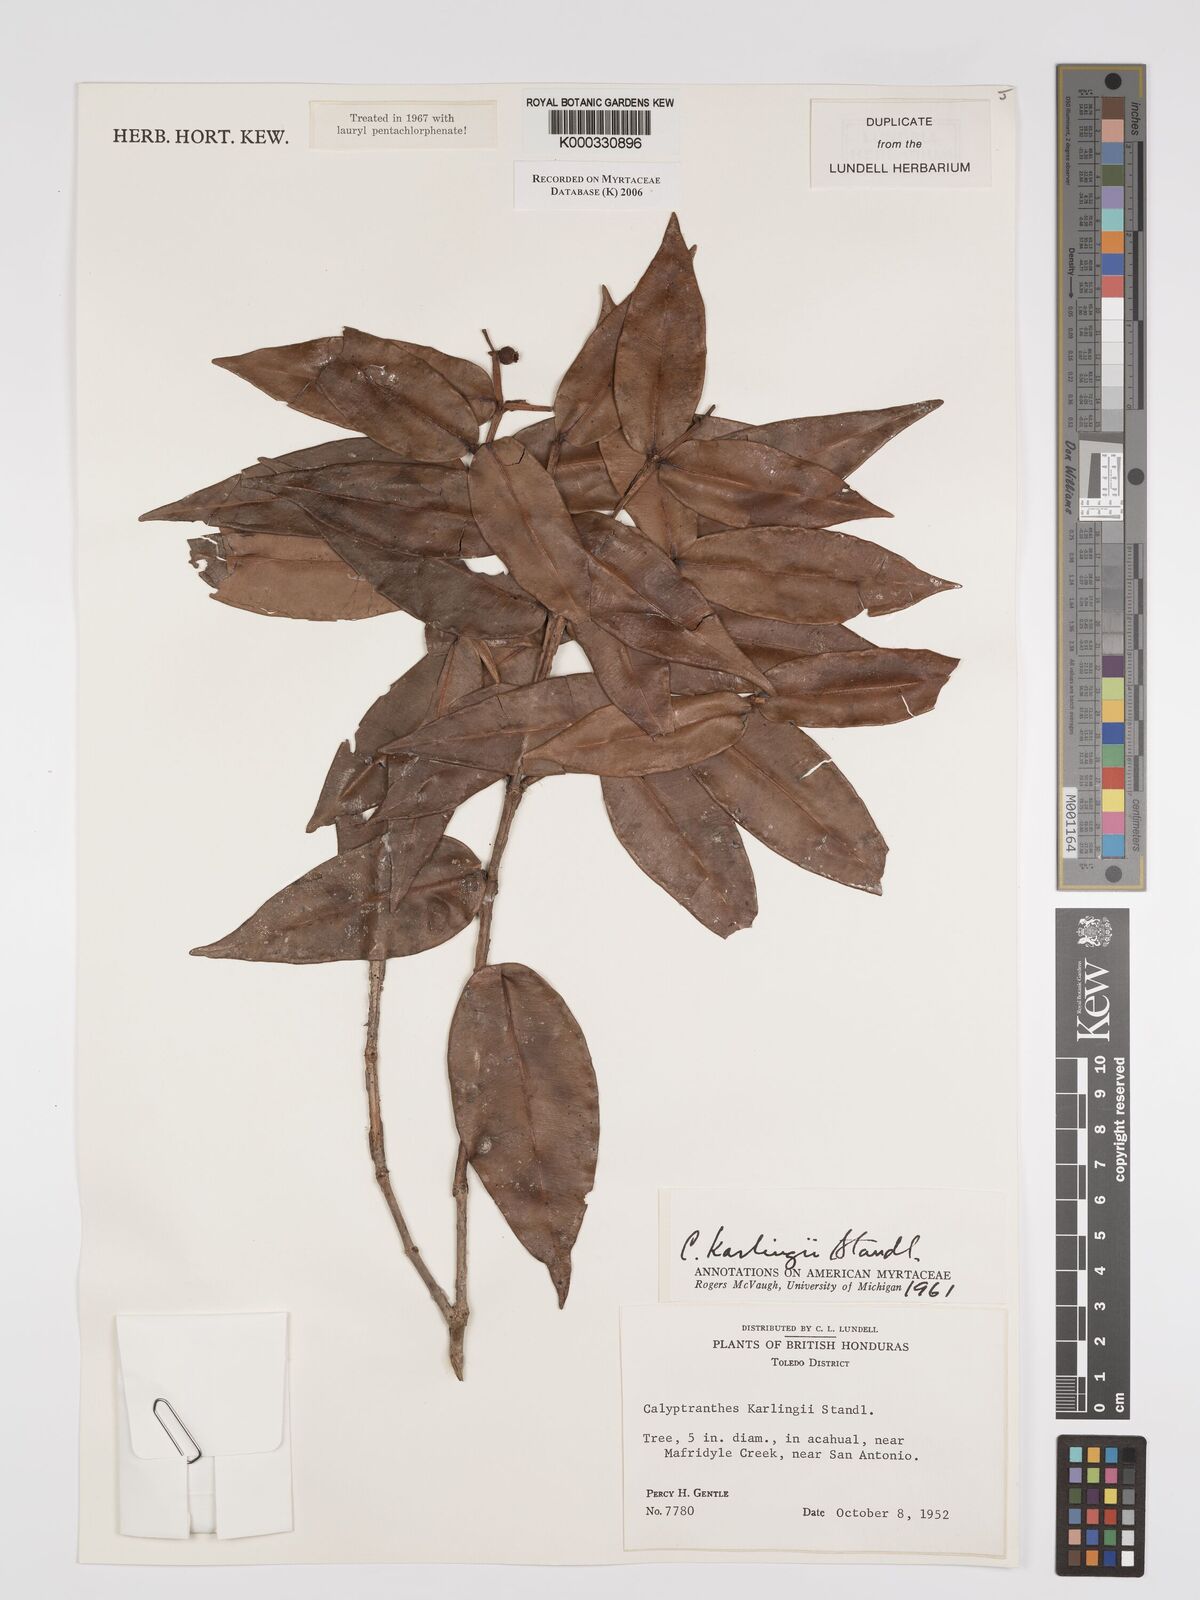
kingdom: Plantae
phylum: Tracheophyta
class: Magnoliopsida
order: Myrtales
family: Myrtaceae
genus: Myrcia
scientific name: Myrcia karlingii
